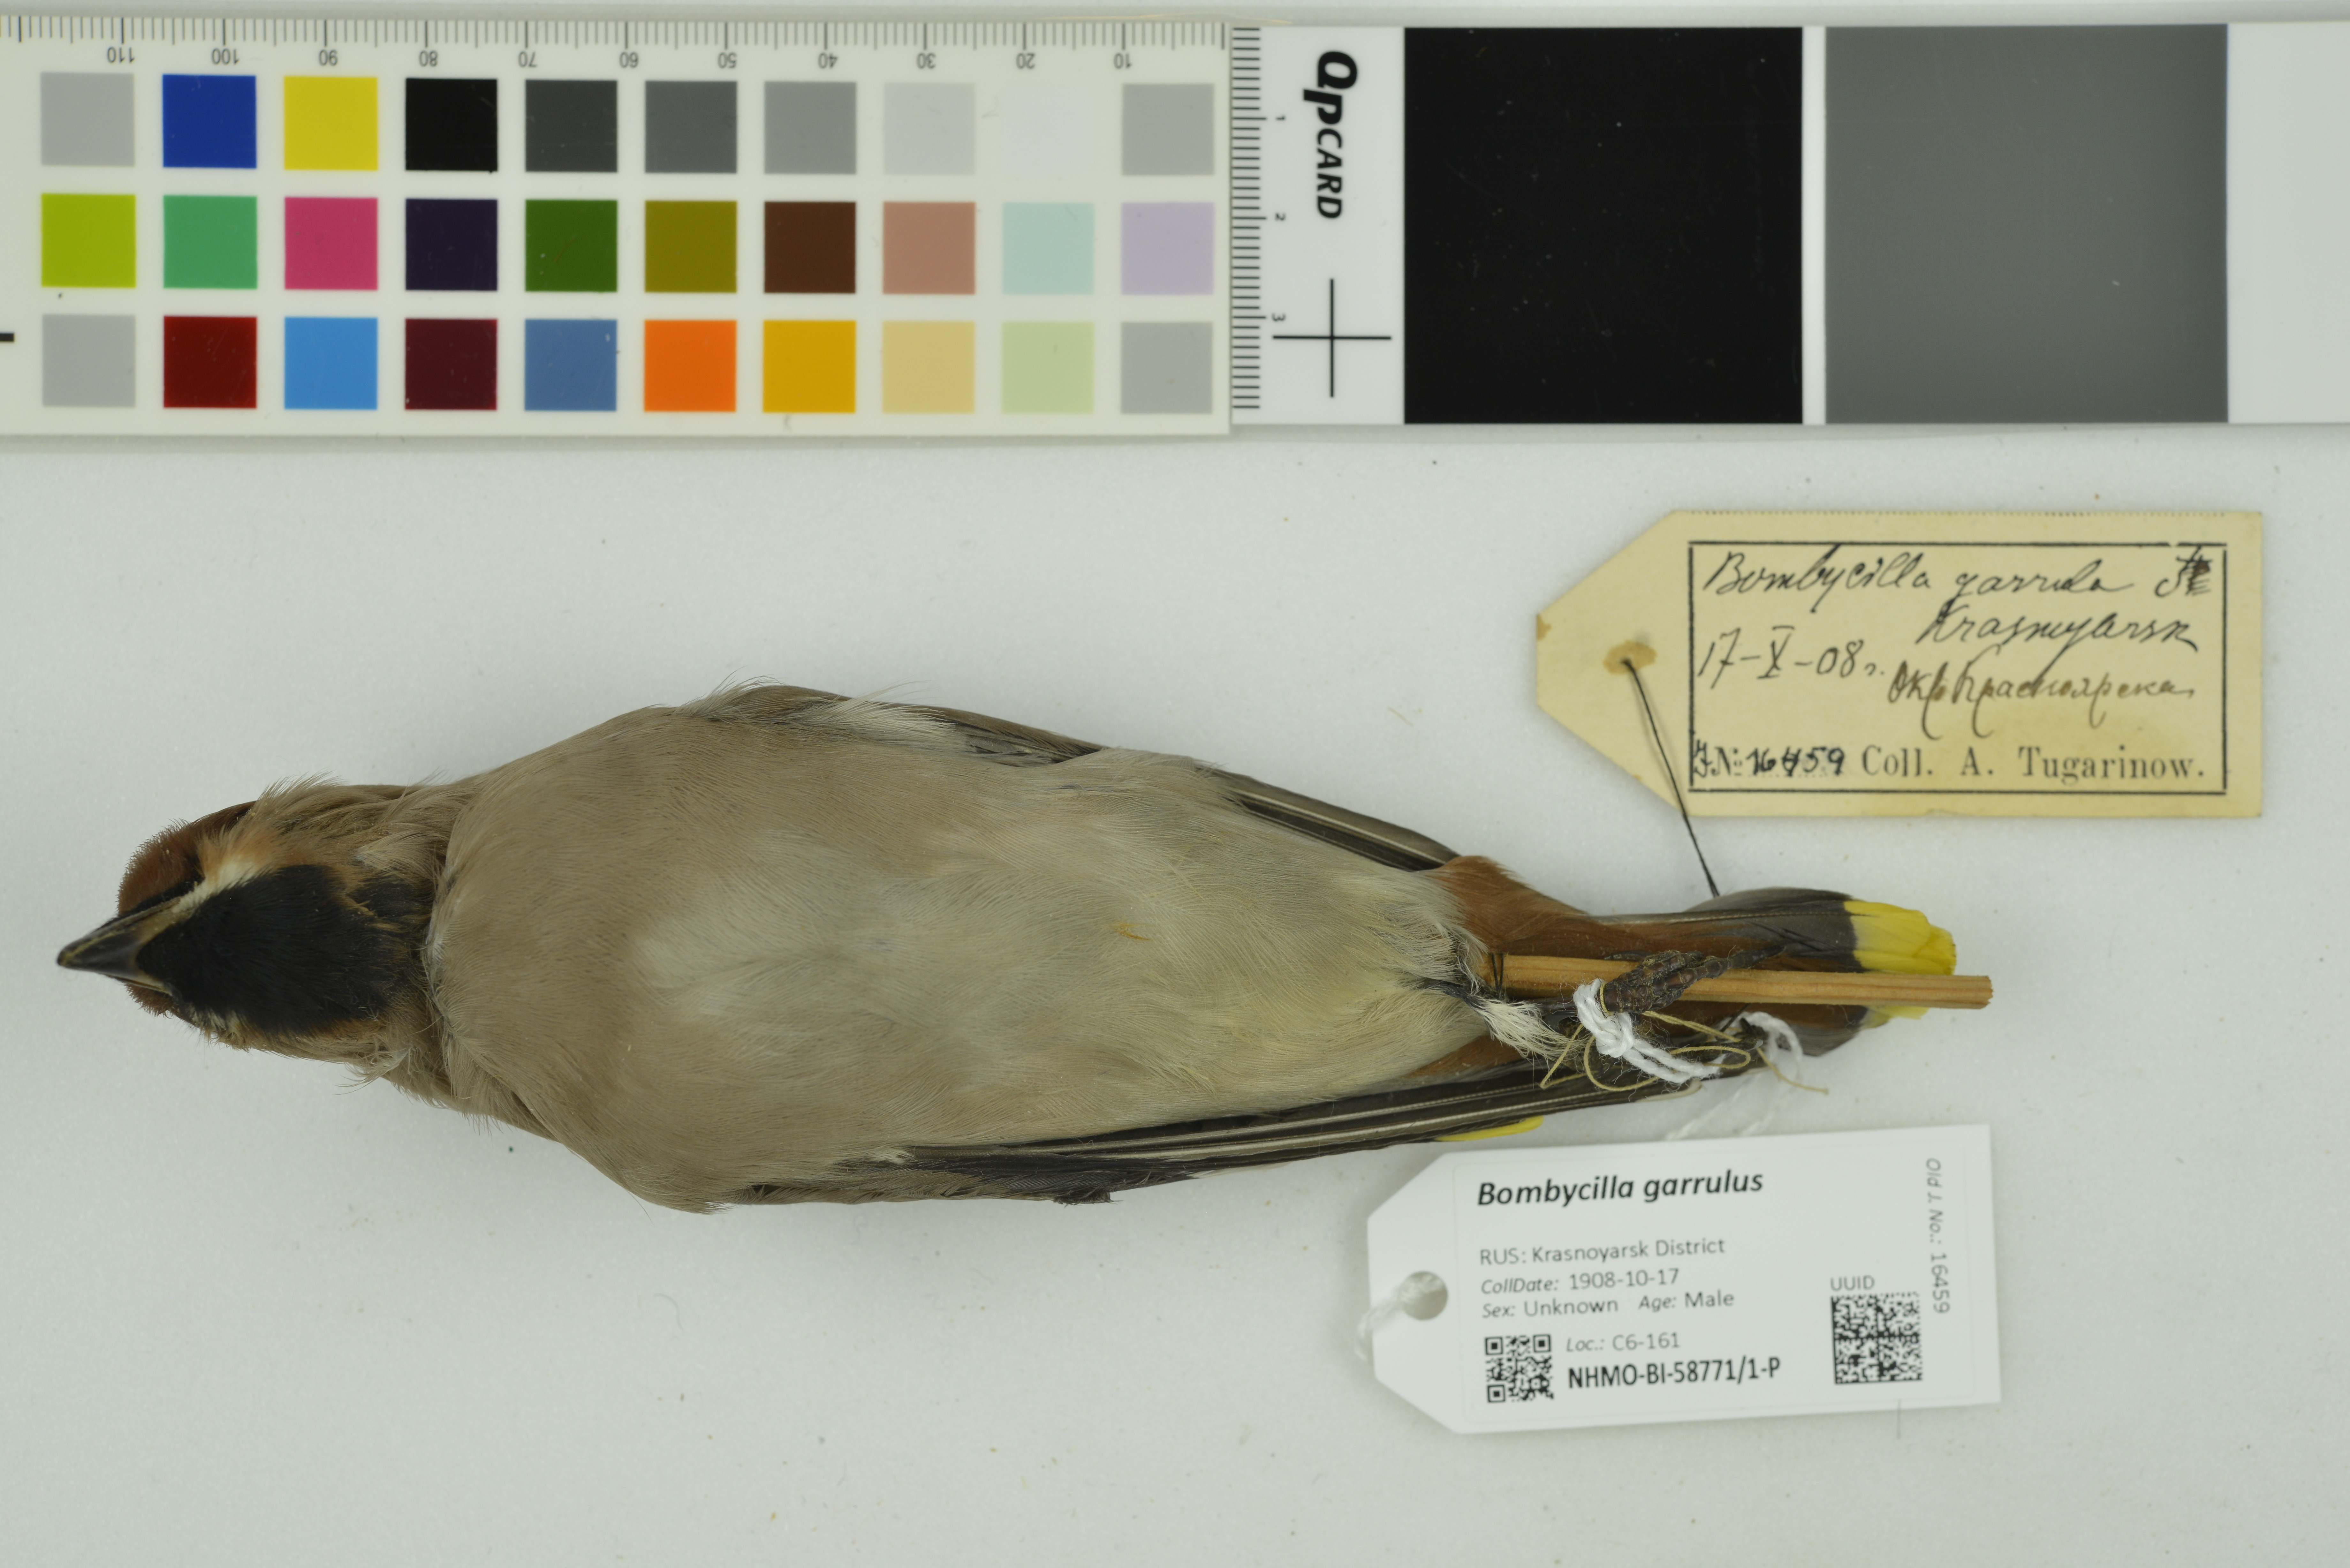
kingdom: Animalia
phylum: Chordata
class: Aves
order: Passeriformes
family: Bombycillidae
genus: Bombycilla
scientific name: Bombycilla garrulus
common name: Bohemian waxwing
